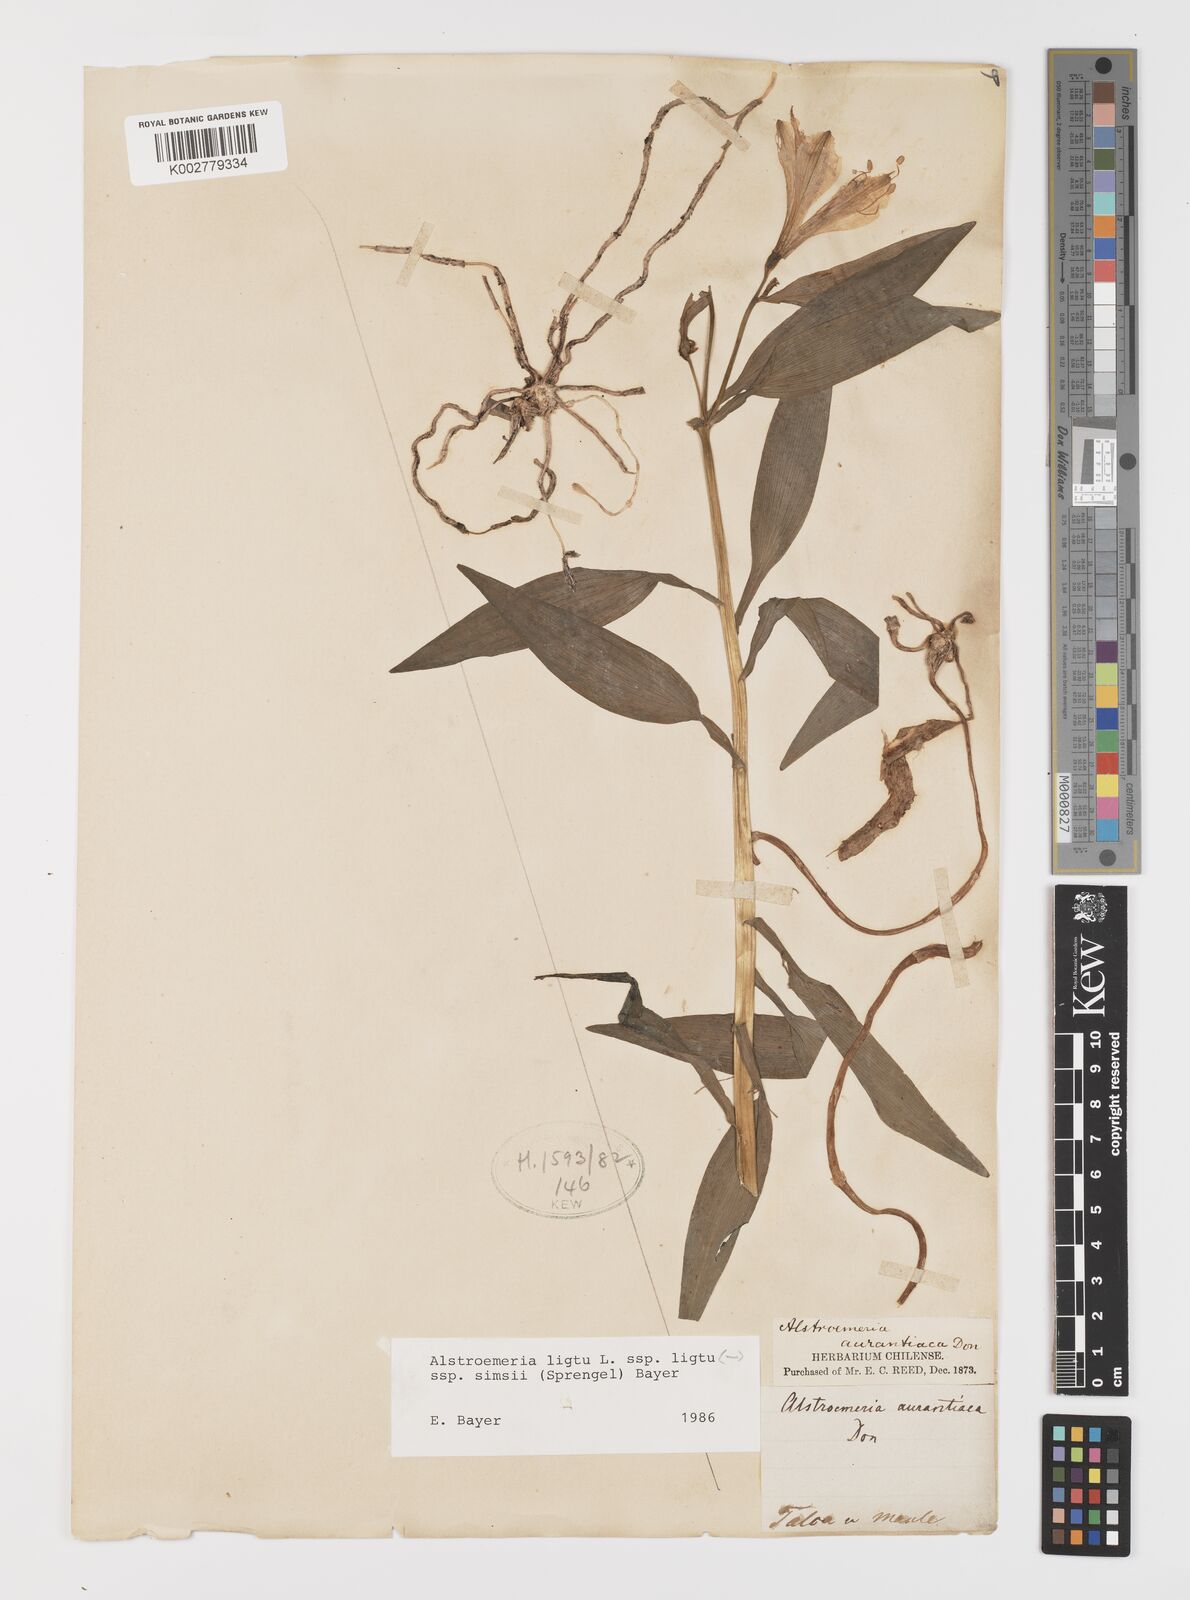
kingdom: Plantae
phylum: Tracheophyta
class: Liliopsida
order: Liliales
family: Alstroemeriaceae
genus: Alstroemeria
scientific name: Alstroemeria ligtu
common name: St. martin's-flower
